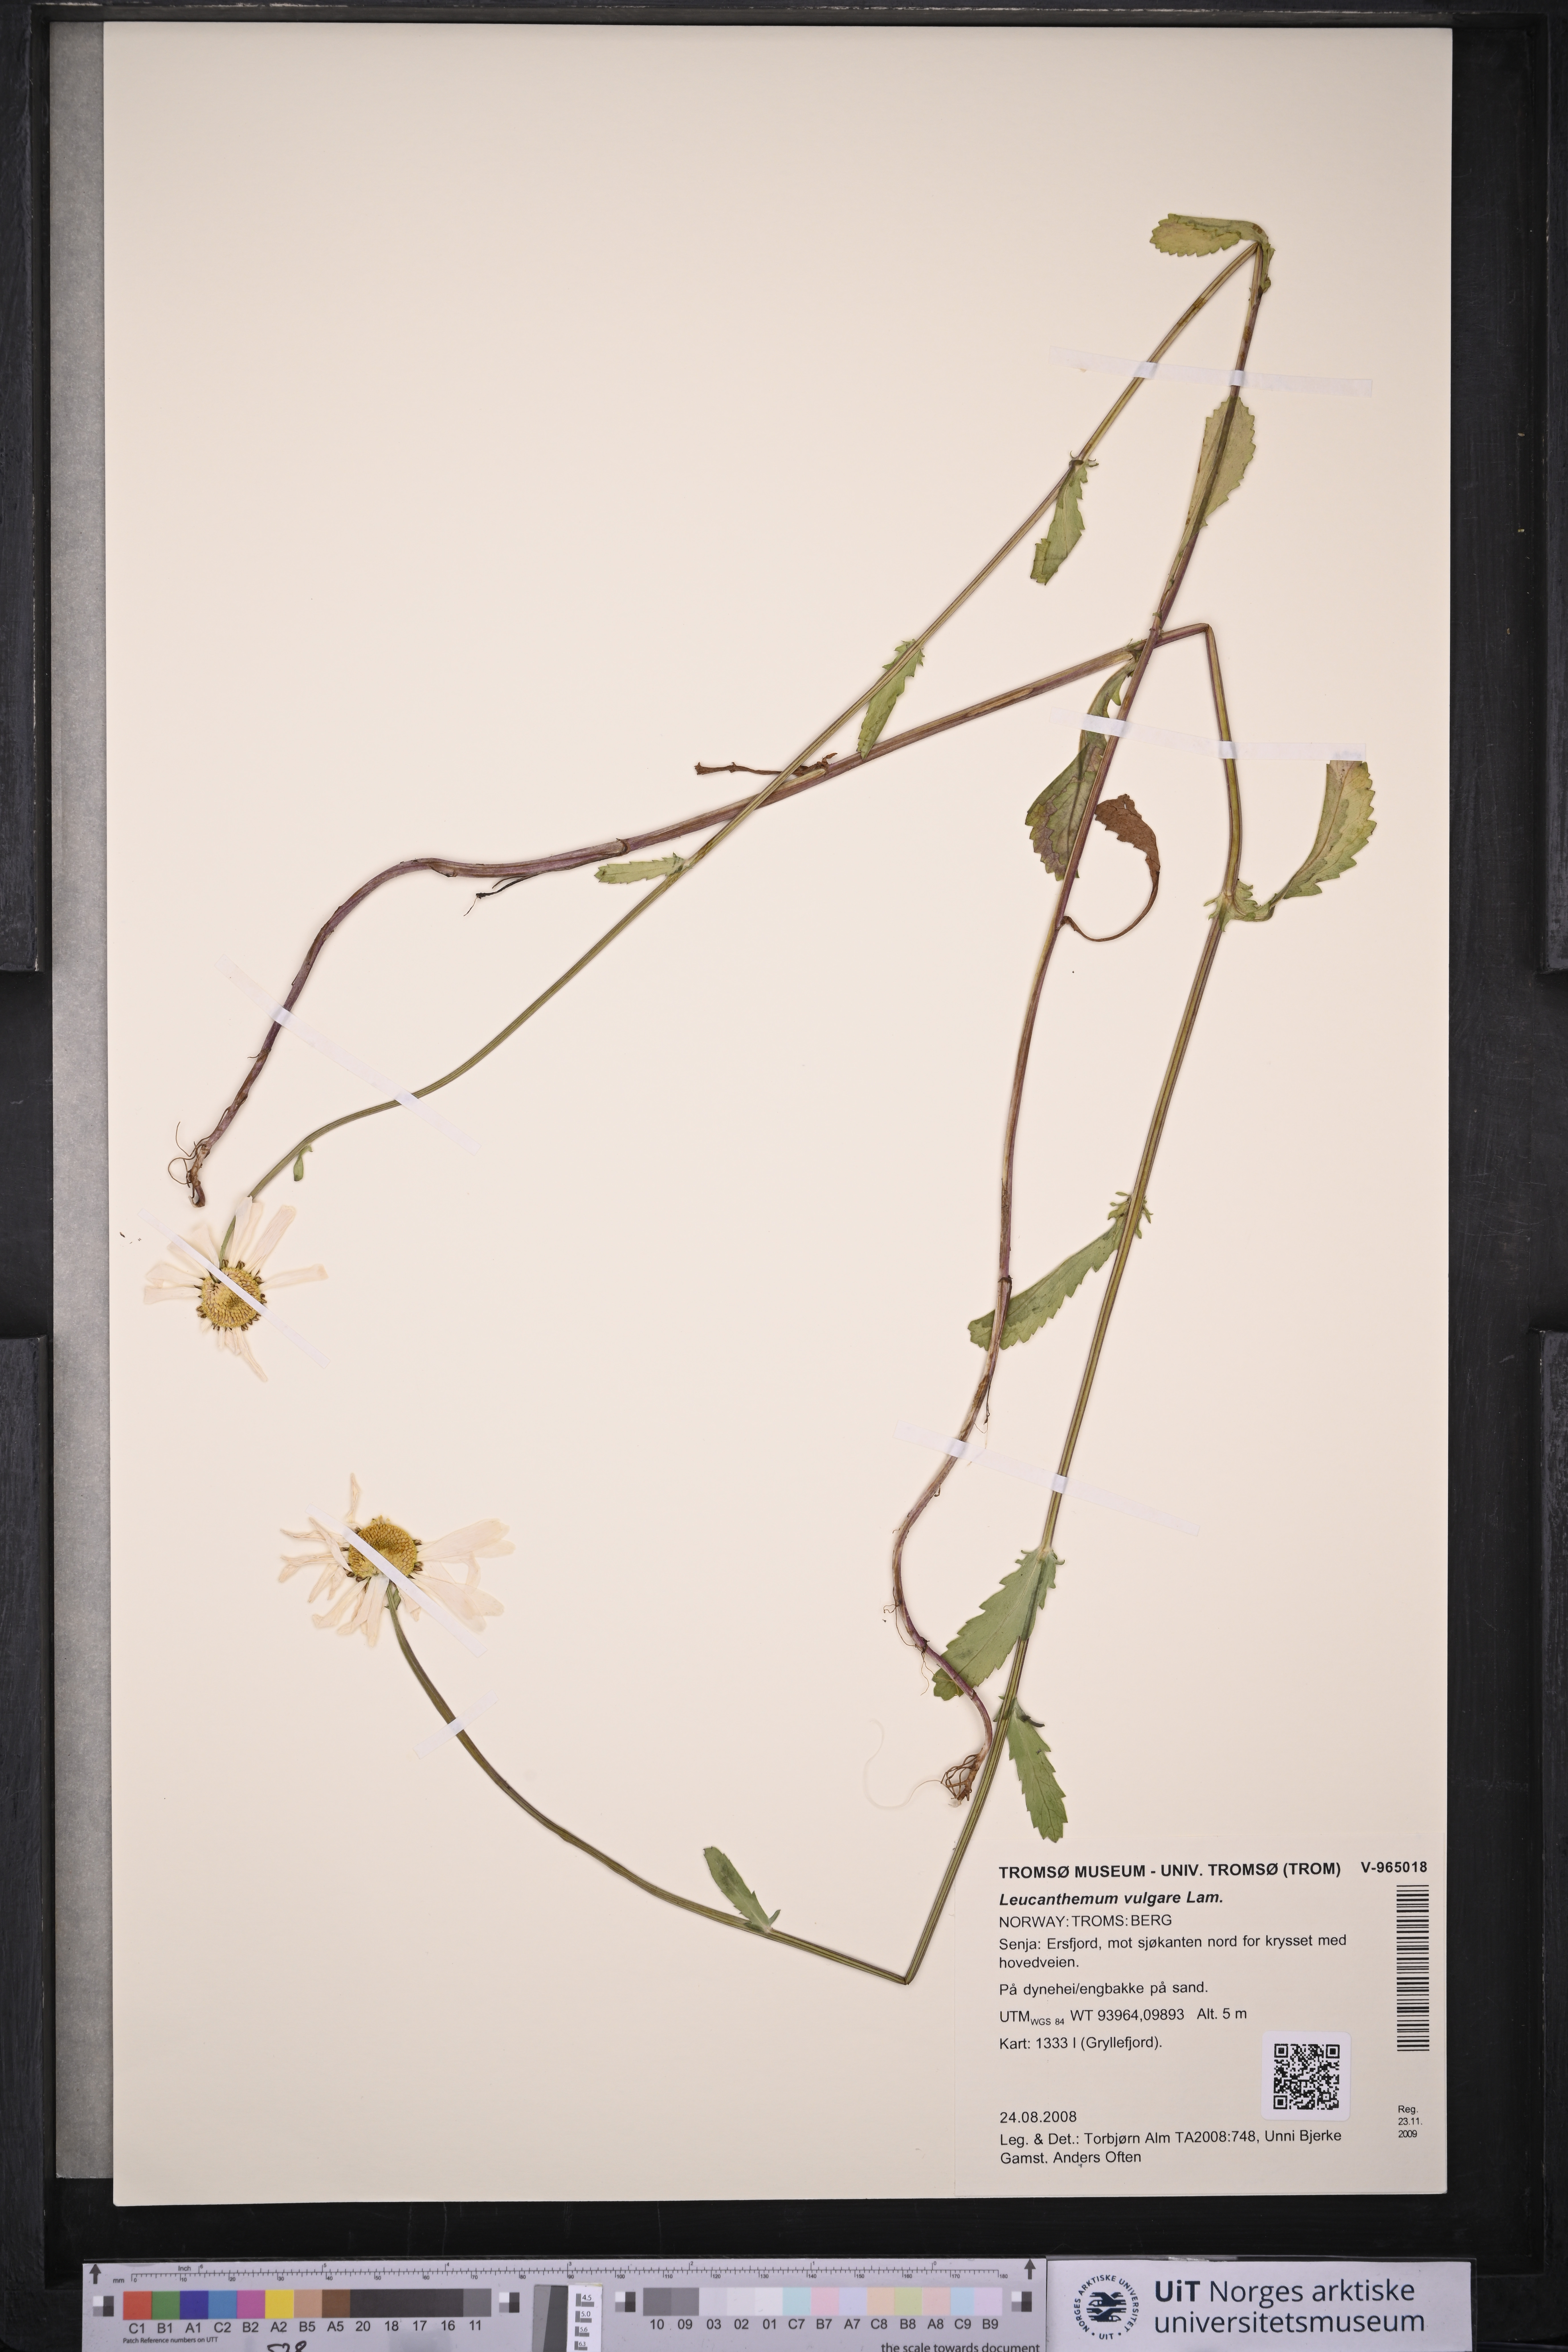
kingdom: Plantae
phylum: Tracheophyta
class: Magnoliopsida
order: Asterales
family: Asteraceae
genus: Leucanthemum
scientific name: Leucanthemum vulgare
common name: Oxeye daisy
